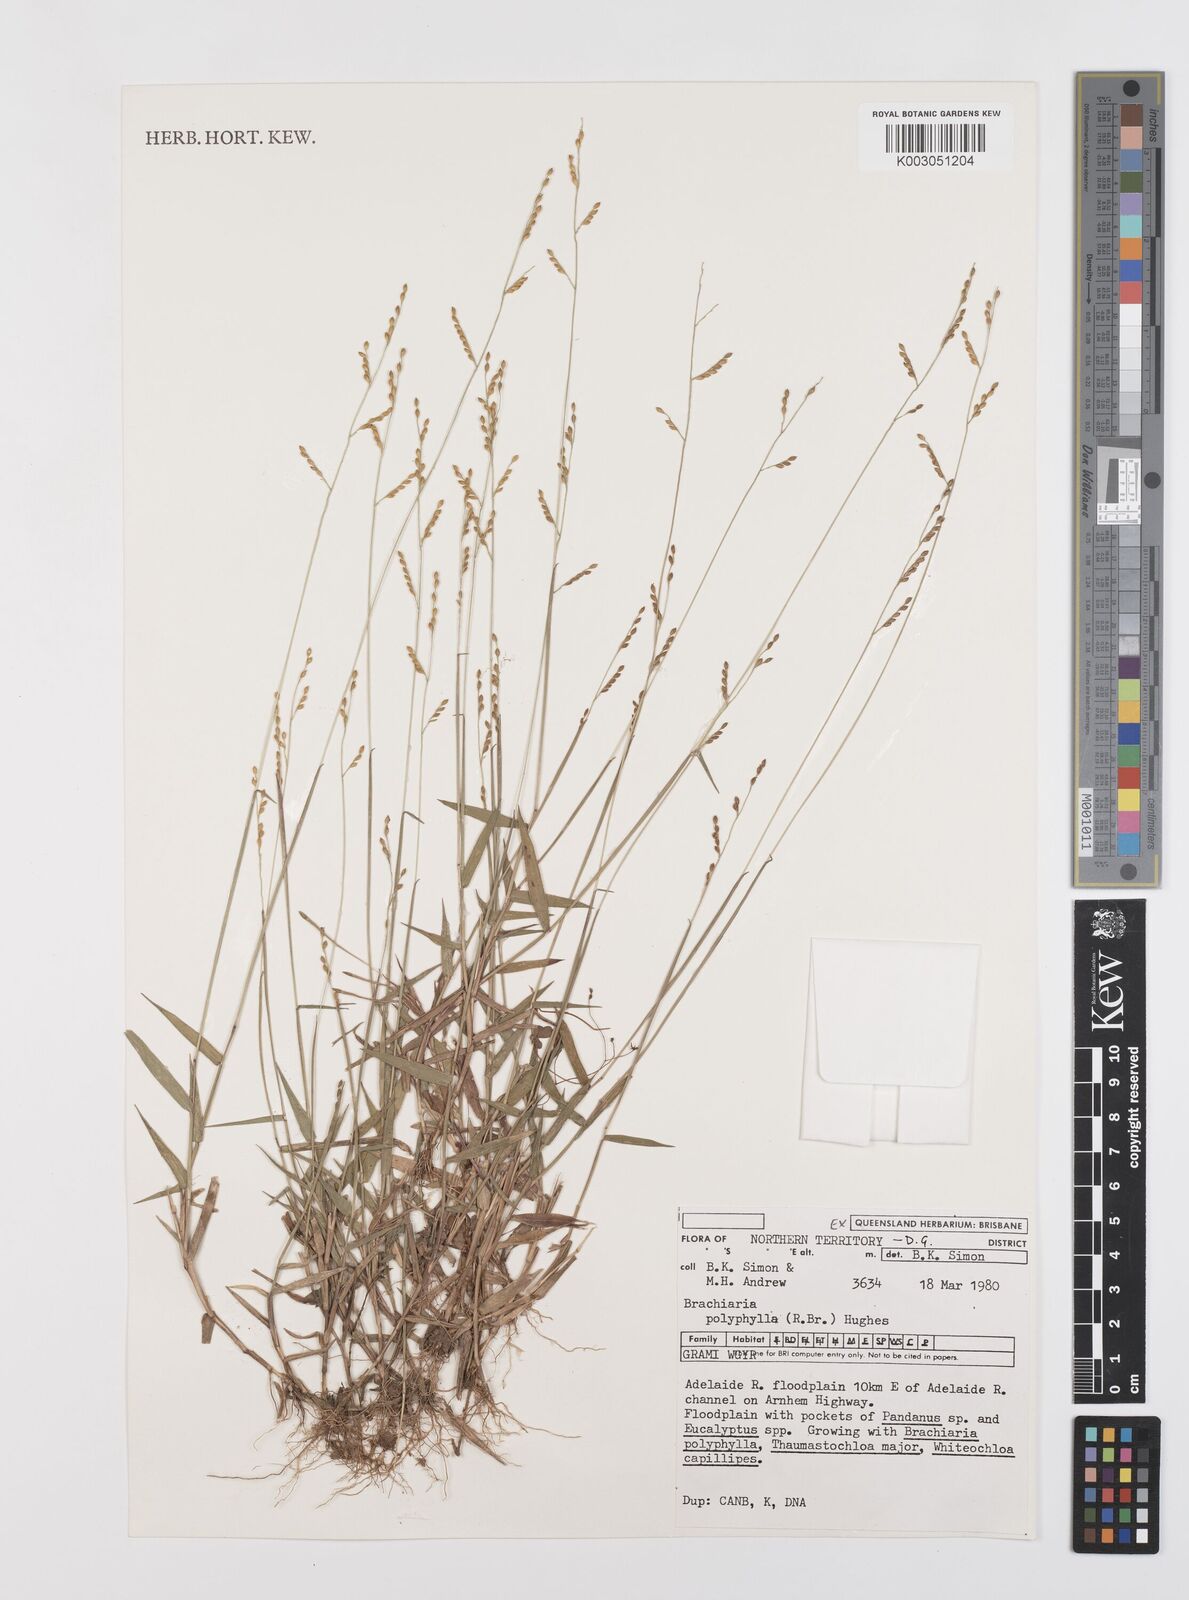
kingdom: Plantae
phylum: Tracheophyta
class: Liliopsida
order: Poales
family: Poaceae
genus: Urochloa
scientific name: Urochloa polyphylla
